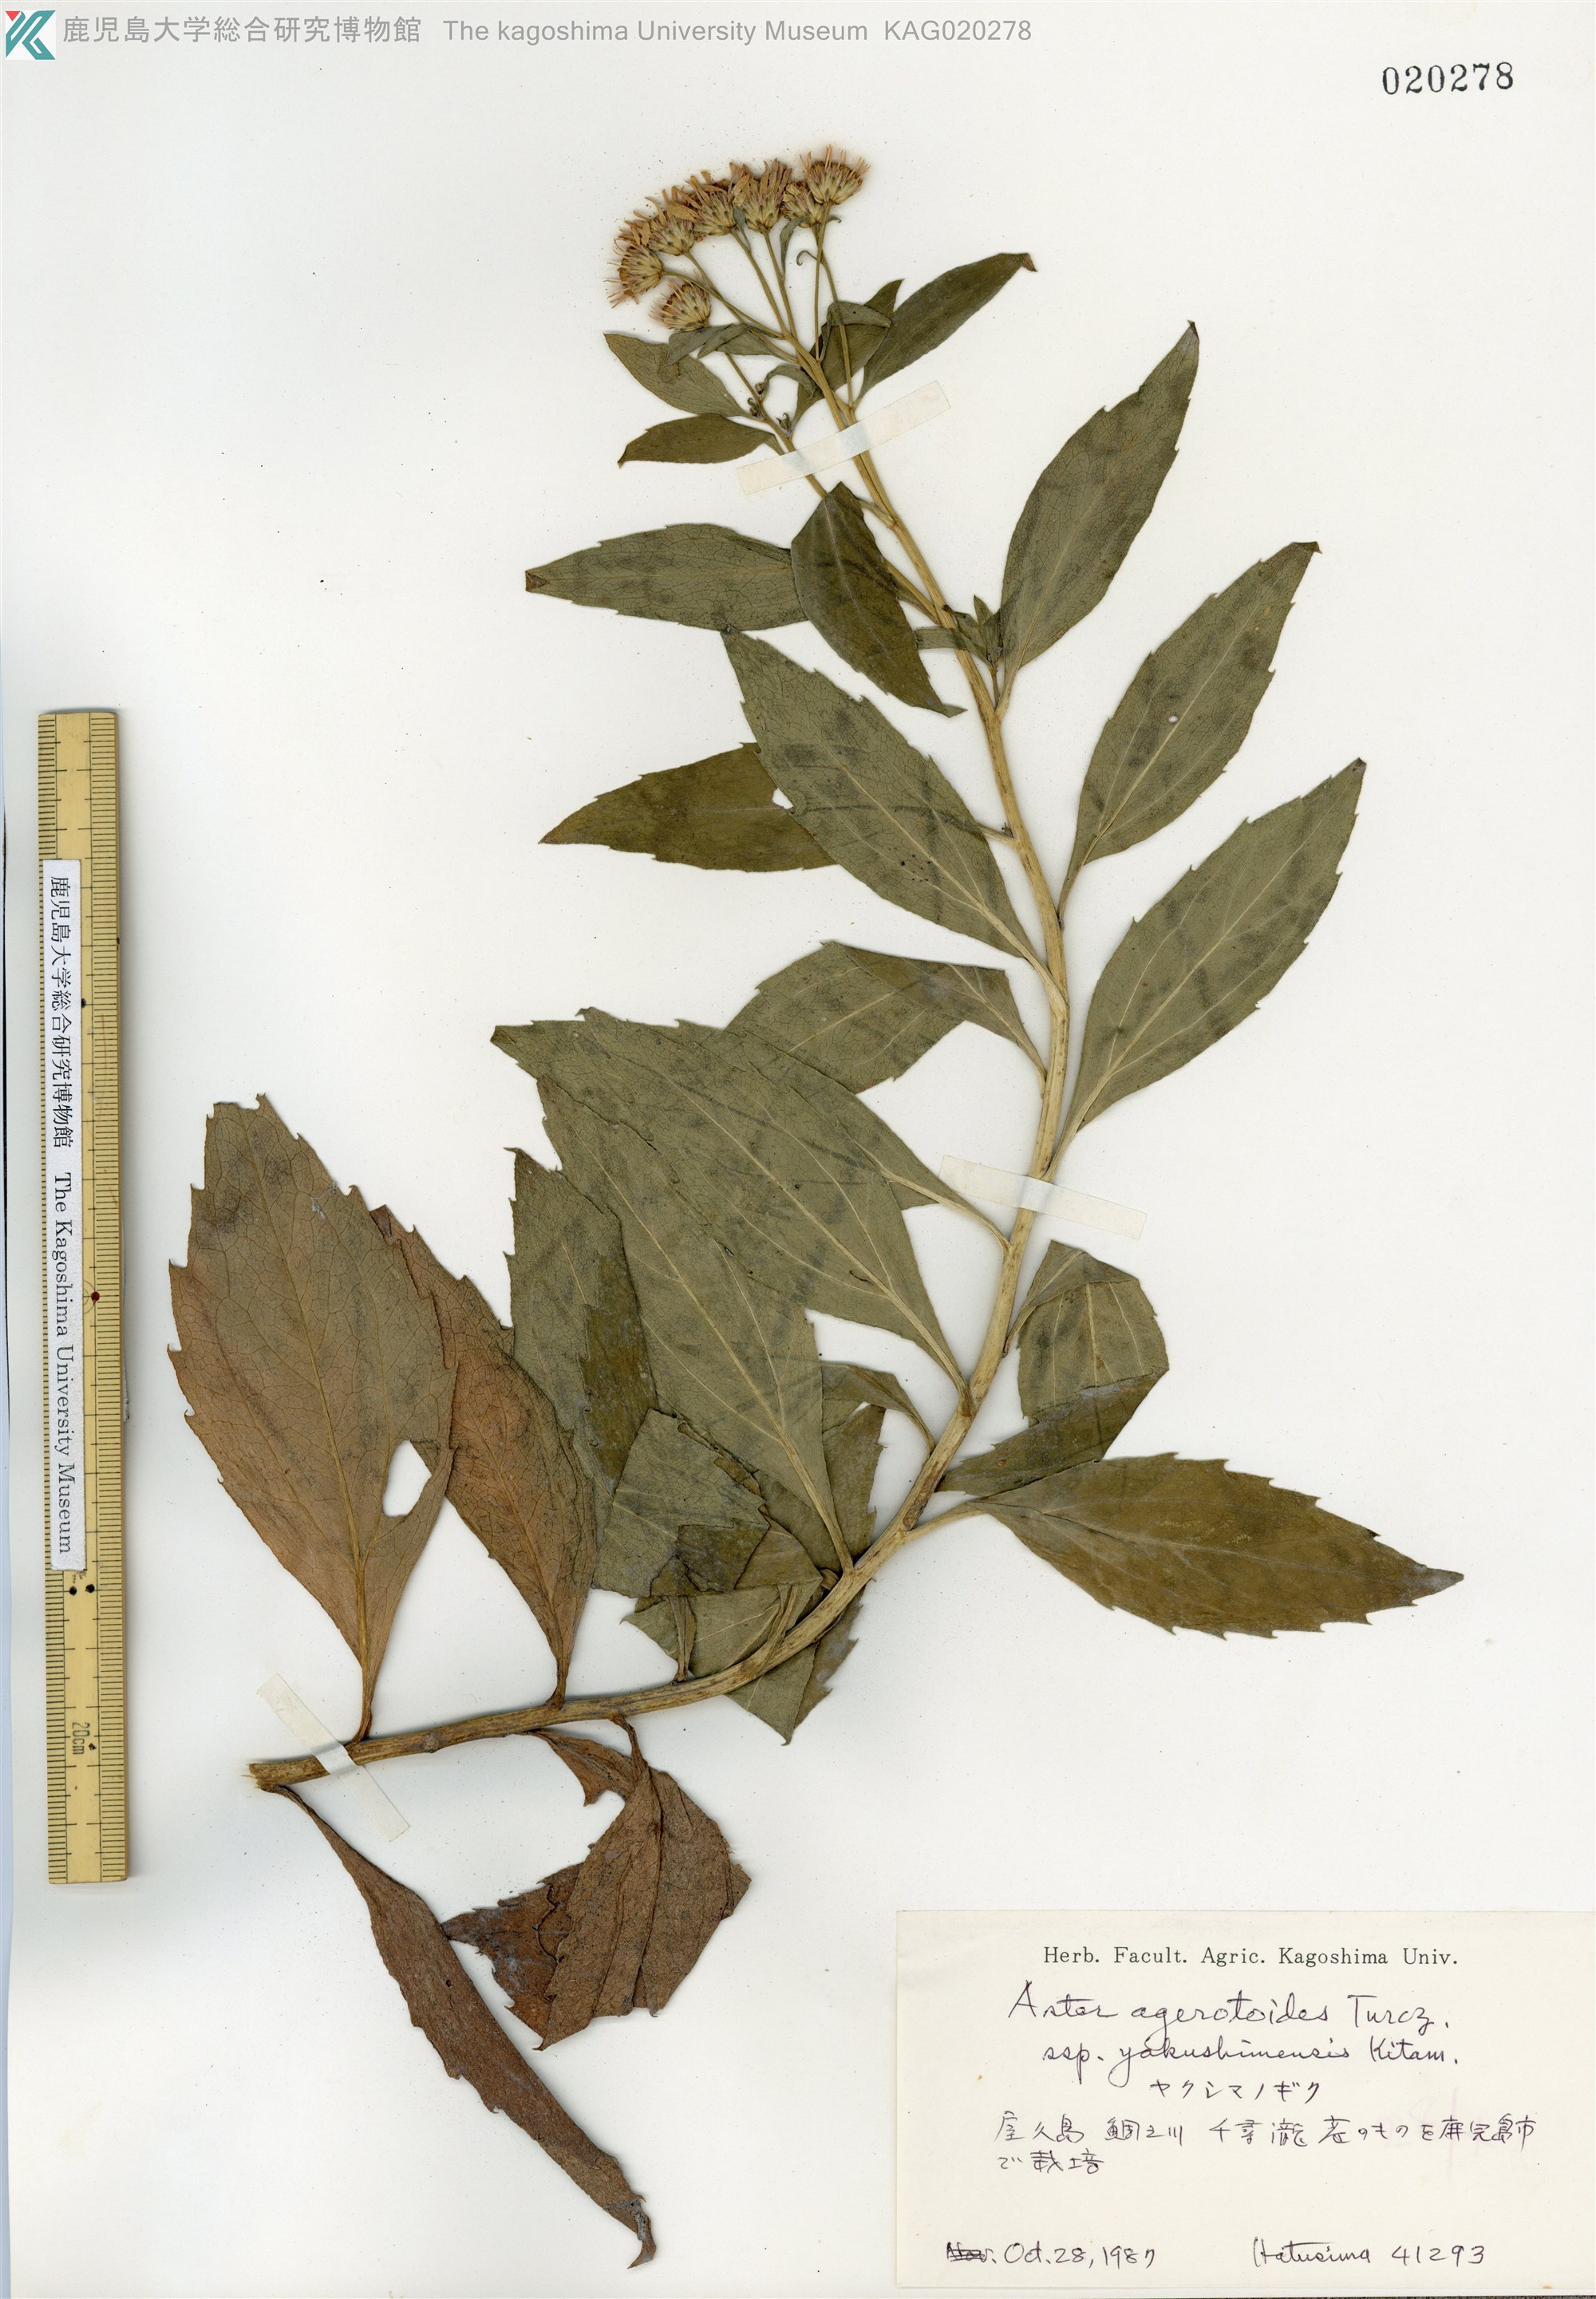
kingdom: Plantae
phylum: Tracheophyta
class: Magnoliopsida
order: Asterales
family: Asteraceae
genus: Aster
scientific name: Aster yakushimensis
